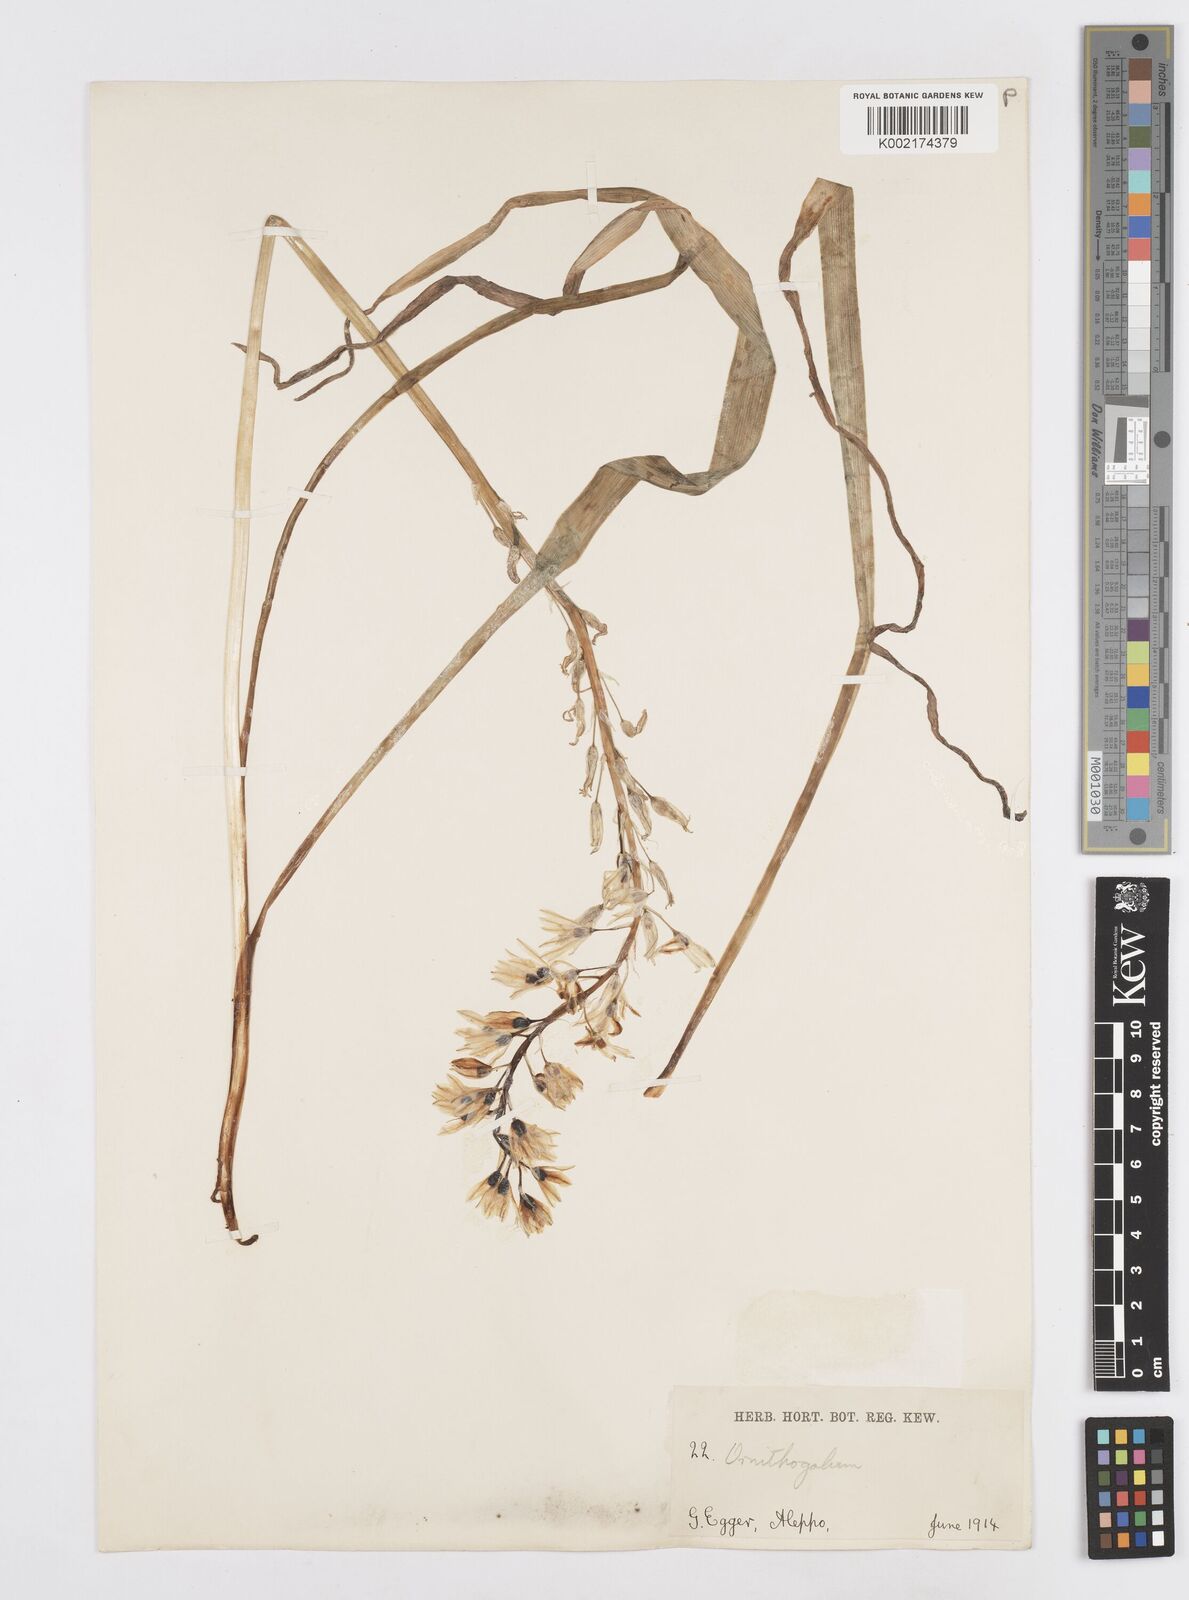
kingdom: Plantae
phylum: Tracheophyta
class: Liliopsida
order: Asparagales
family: Asparagaceae
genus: Ornithogalum
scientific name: Ornithogalum narbonense
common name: Bath-asparagus
